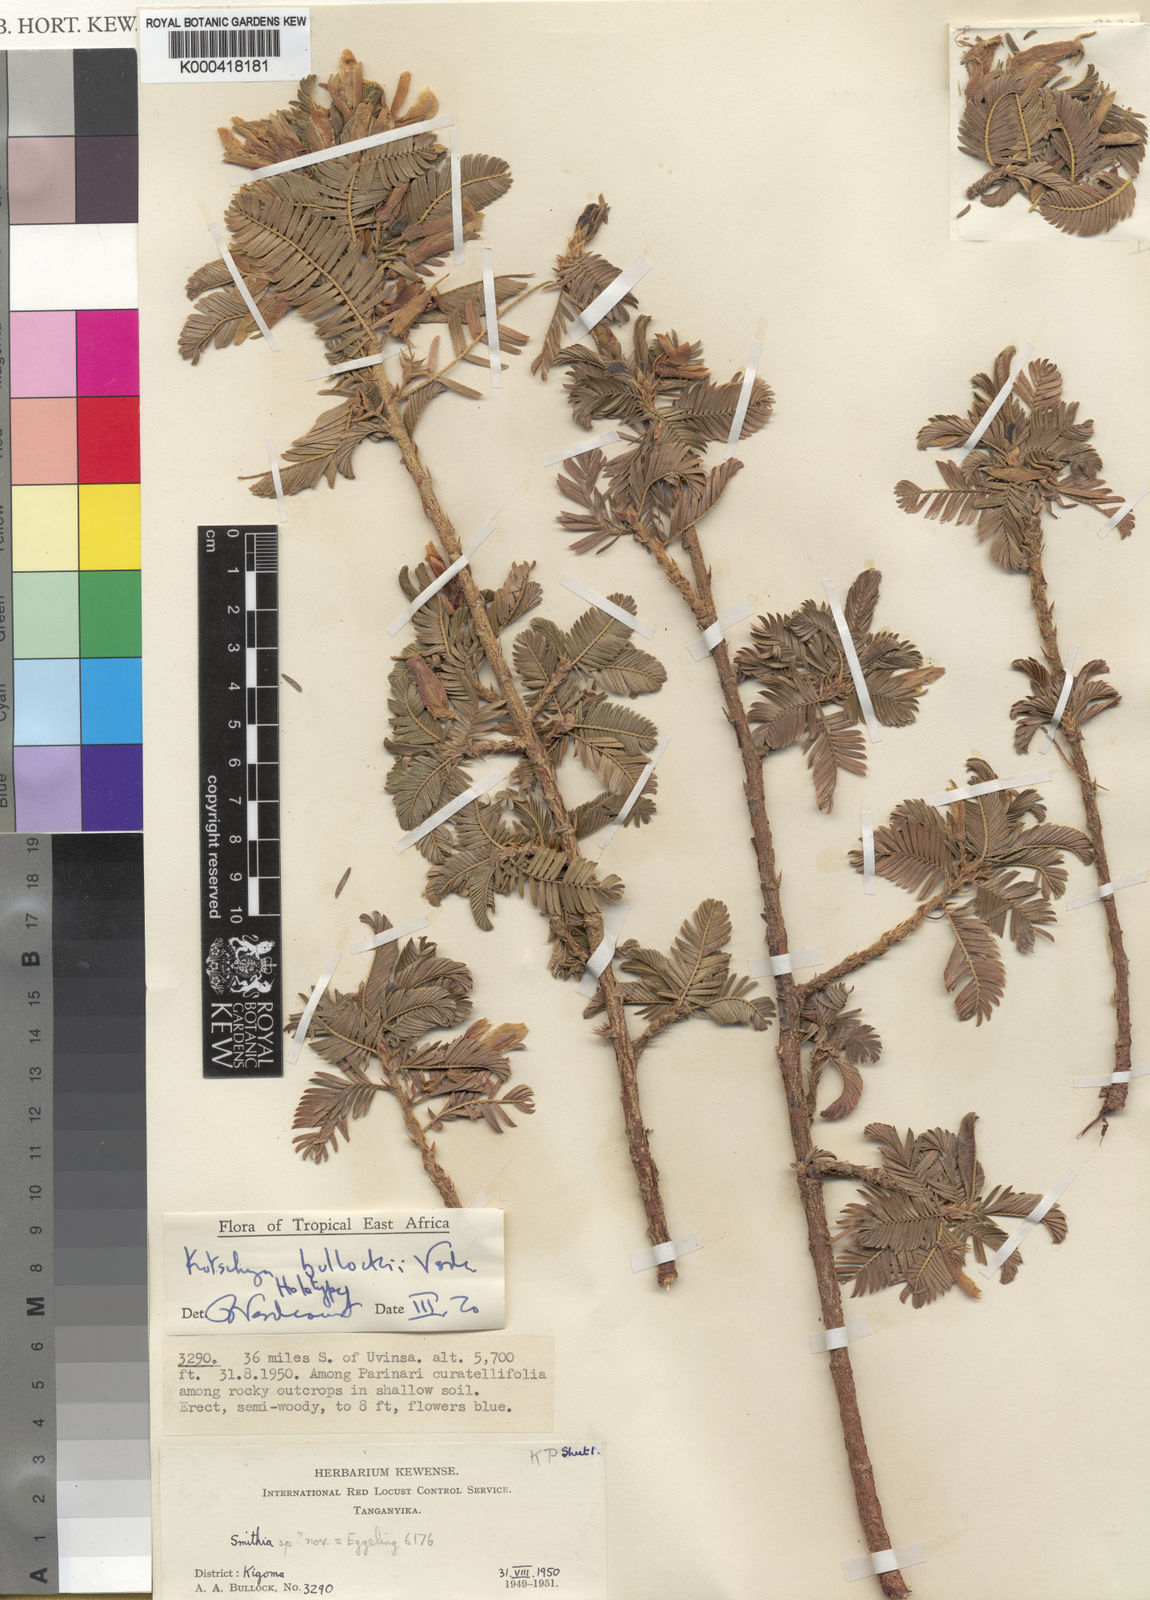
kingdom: Plantae
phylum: Tracheophyta
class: Magnoliopsida
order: Fabales
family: Fabaceae
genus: Kotschya
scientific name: Kotschya bullockii
